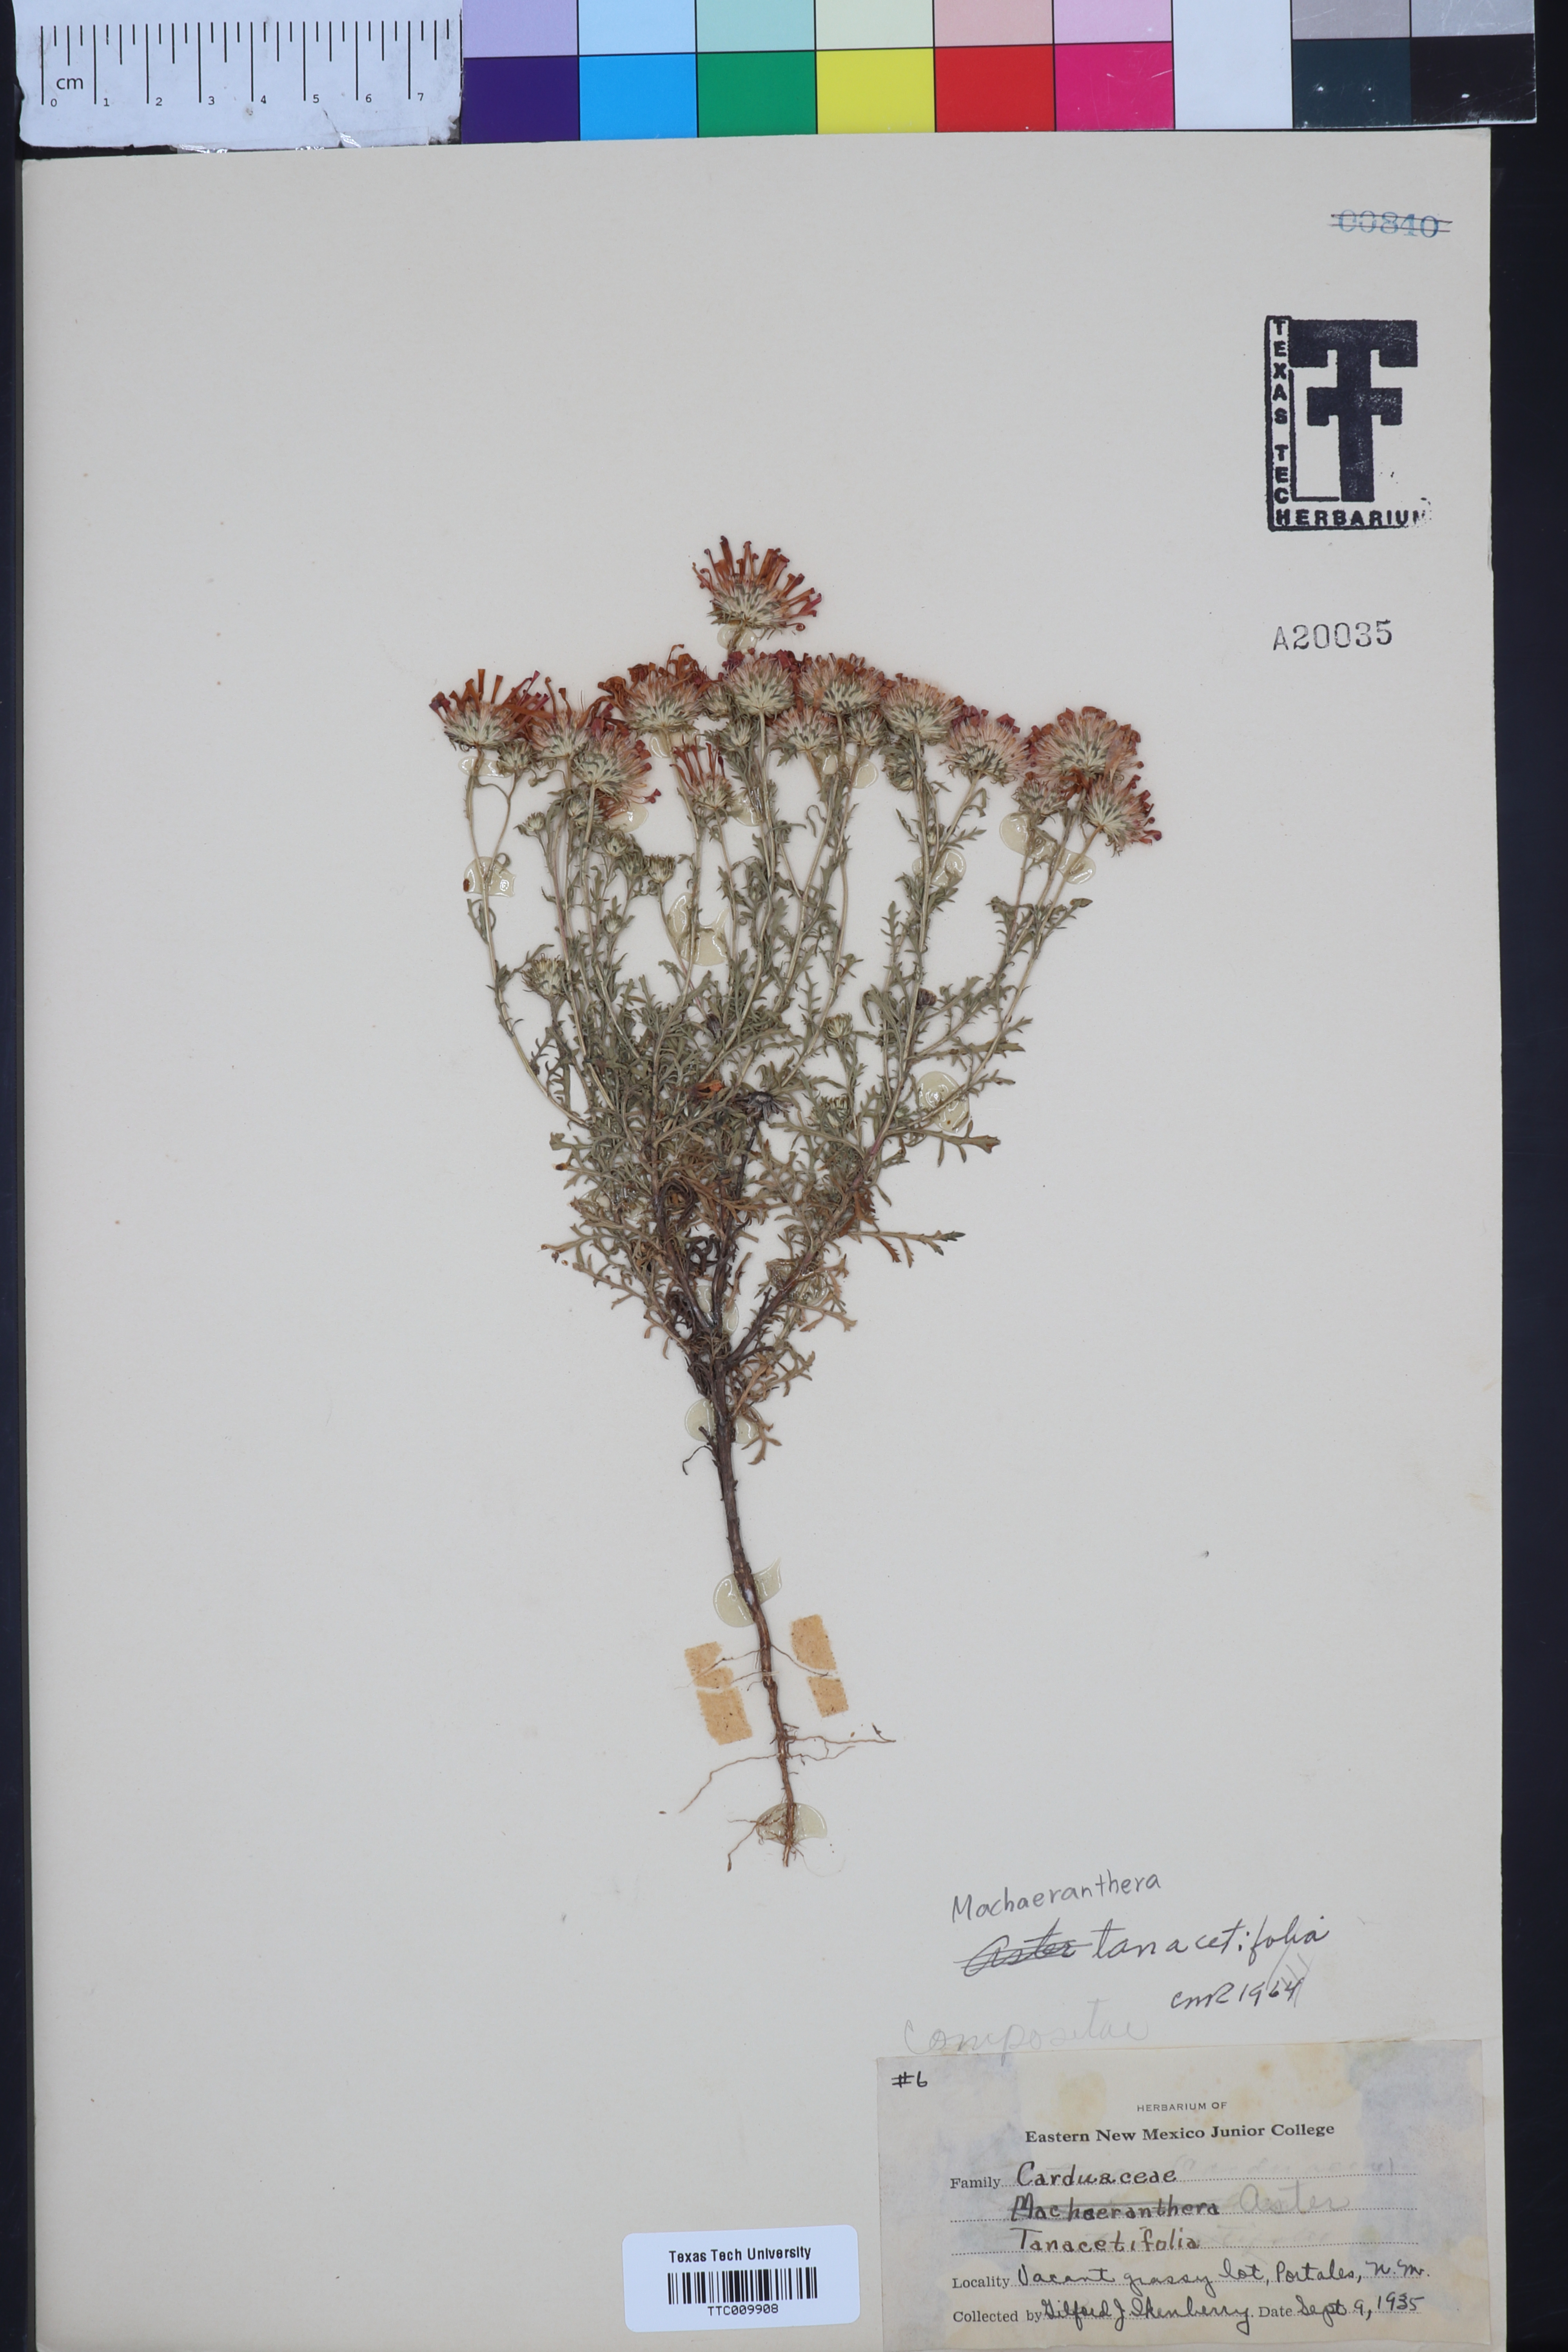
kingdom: Plantae
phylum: Tracheophyta
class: Magnoliopsida
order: Asterales
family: Asteraceae
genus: Machaeranthera
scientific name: Machaeranthera tanacetifolia
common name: Tansy-aster
